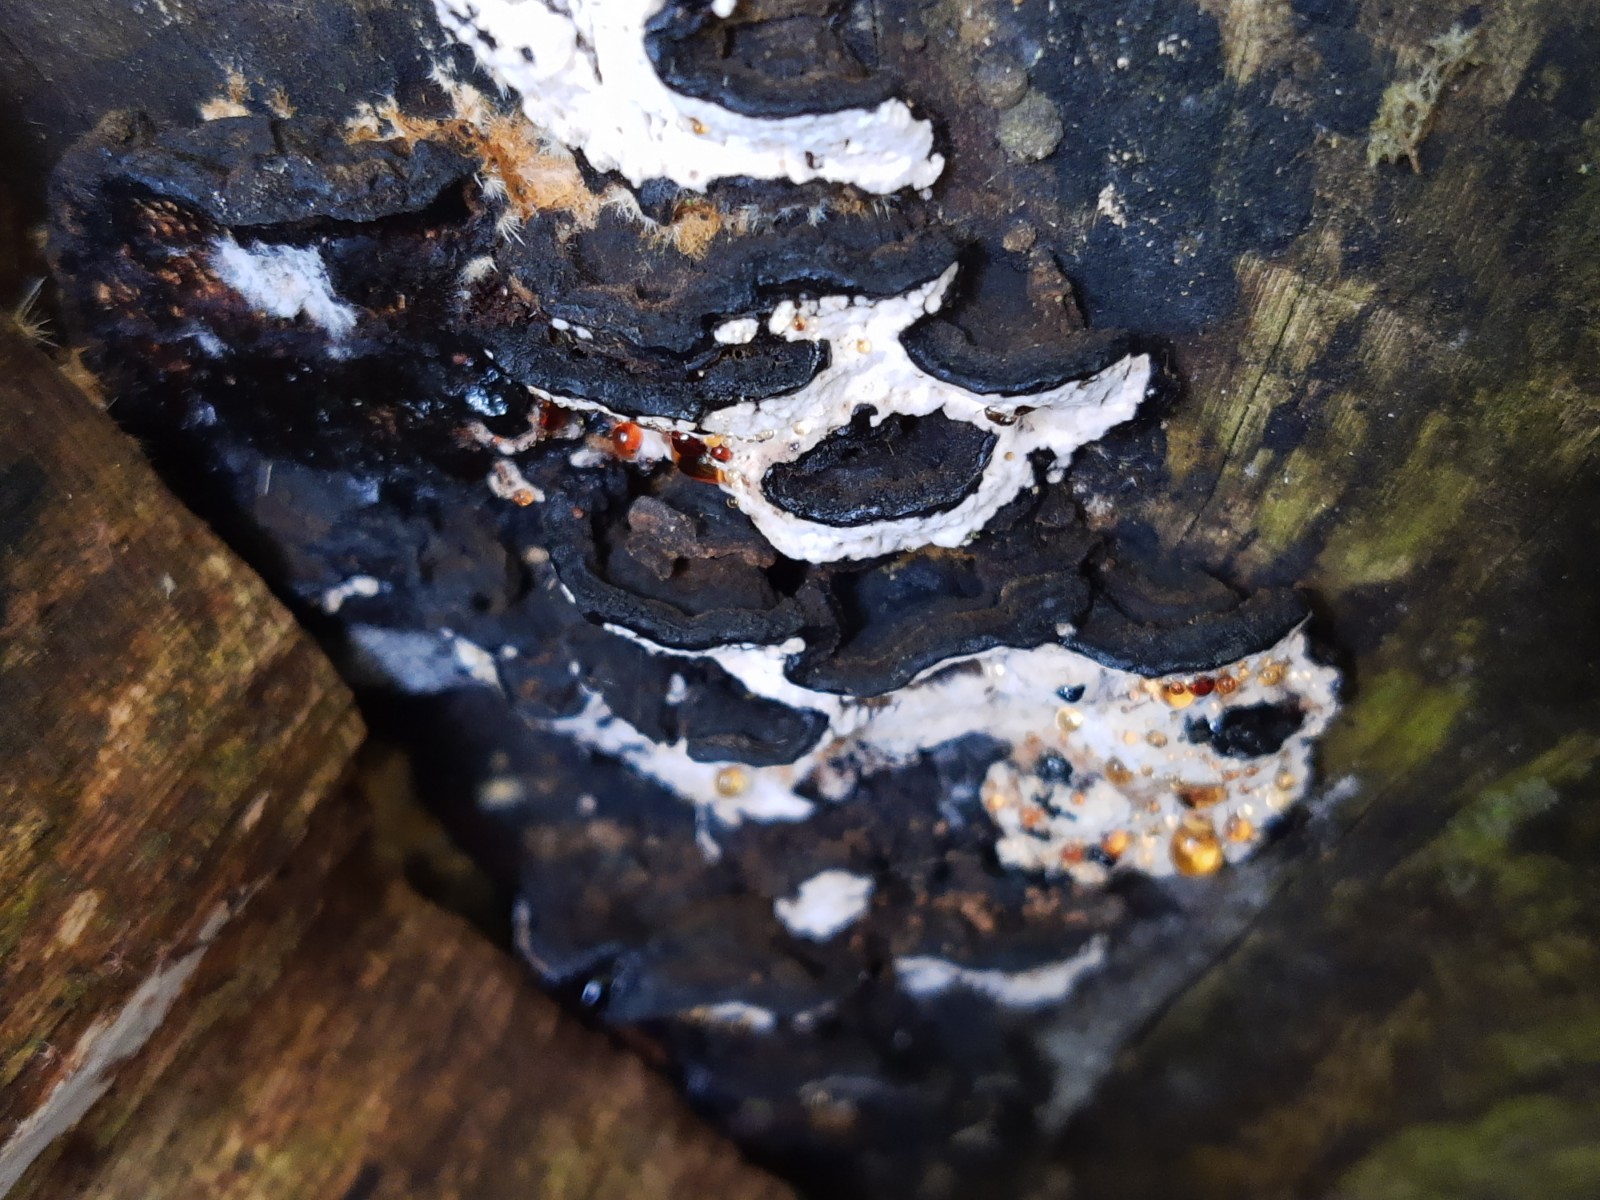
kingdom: Fungi
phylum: Basidiomycota
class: Agaricomycetes
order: Polyporales
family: Polyporaceae
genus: Podofomes
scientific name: Podofomes mollis
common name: blød begporesvamp
